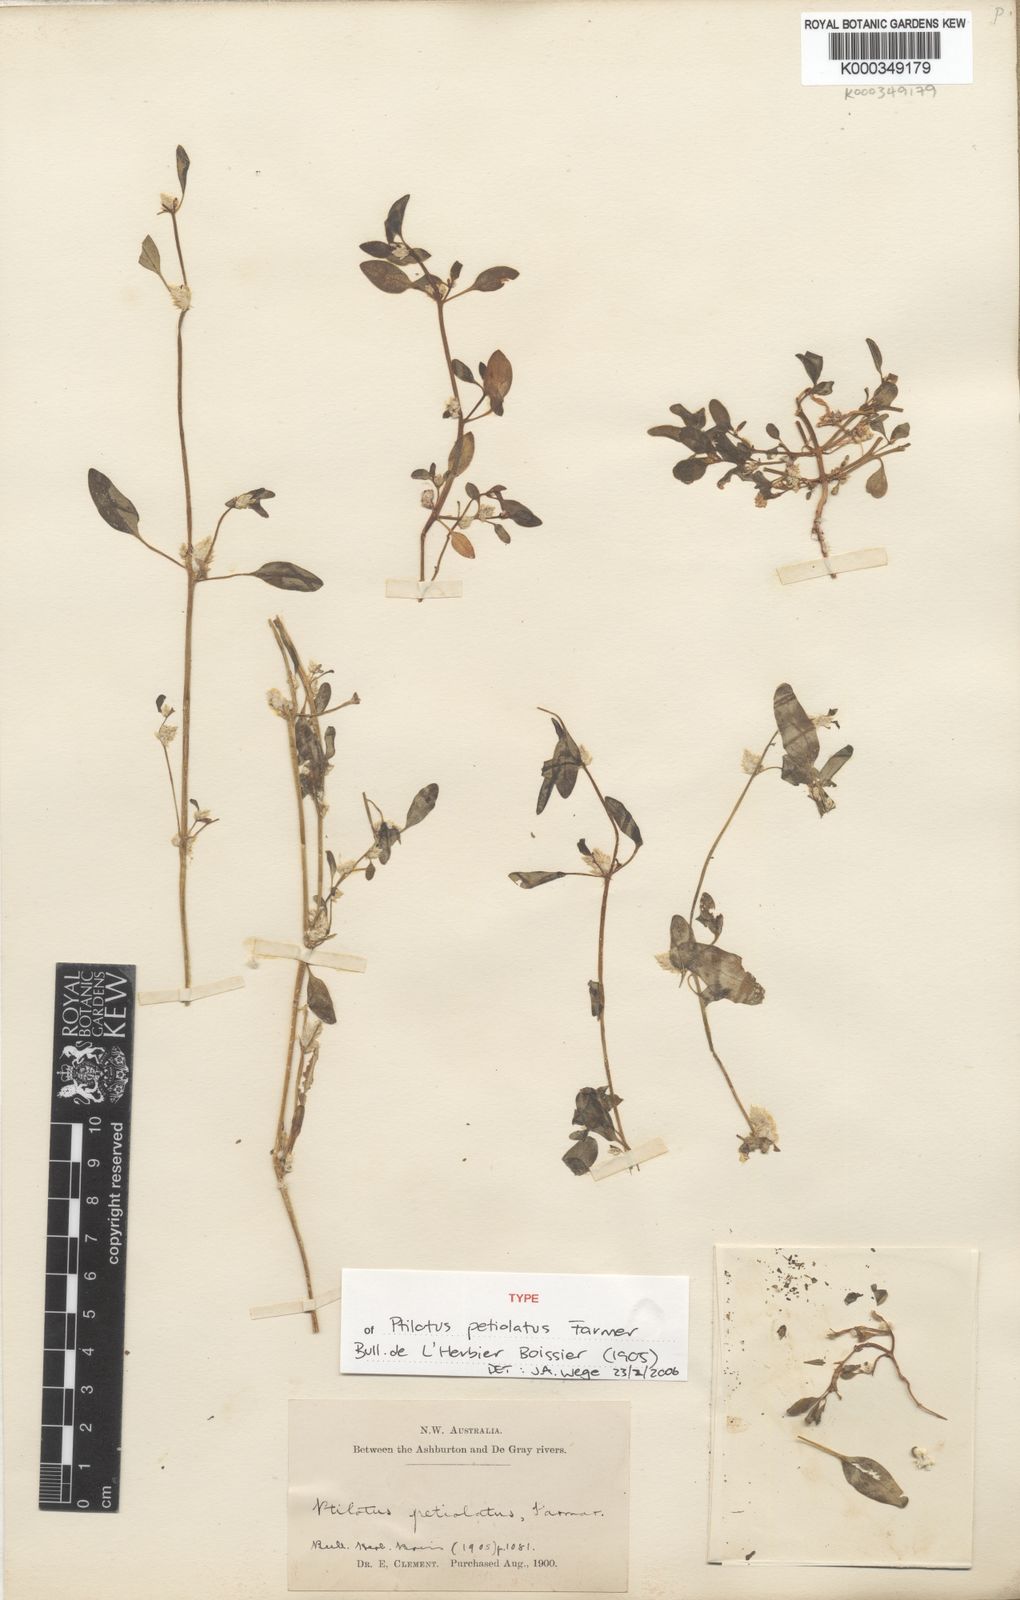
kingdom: Plantae
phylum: Tracheophyta
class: Magnoliopsida
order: Caryophyllales
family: Amaranthaceae
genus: Ptilotus
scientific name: Ptilotus murrayi
